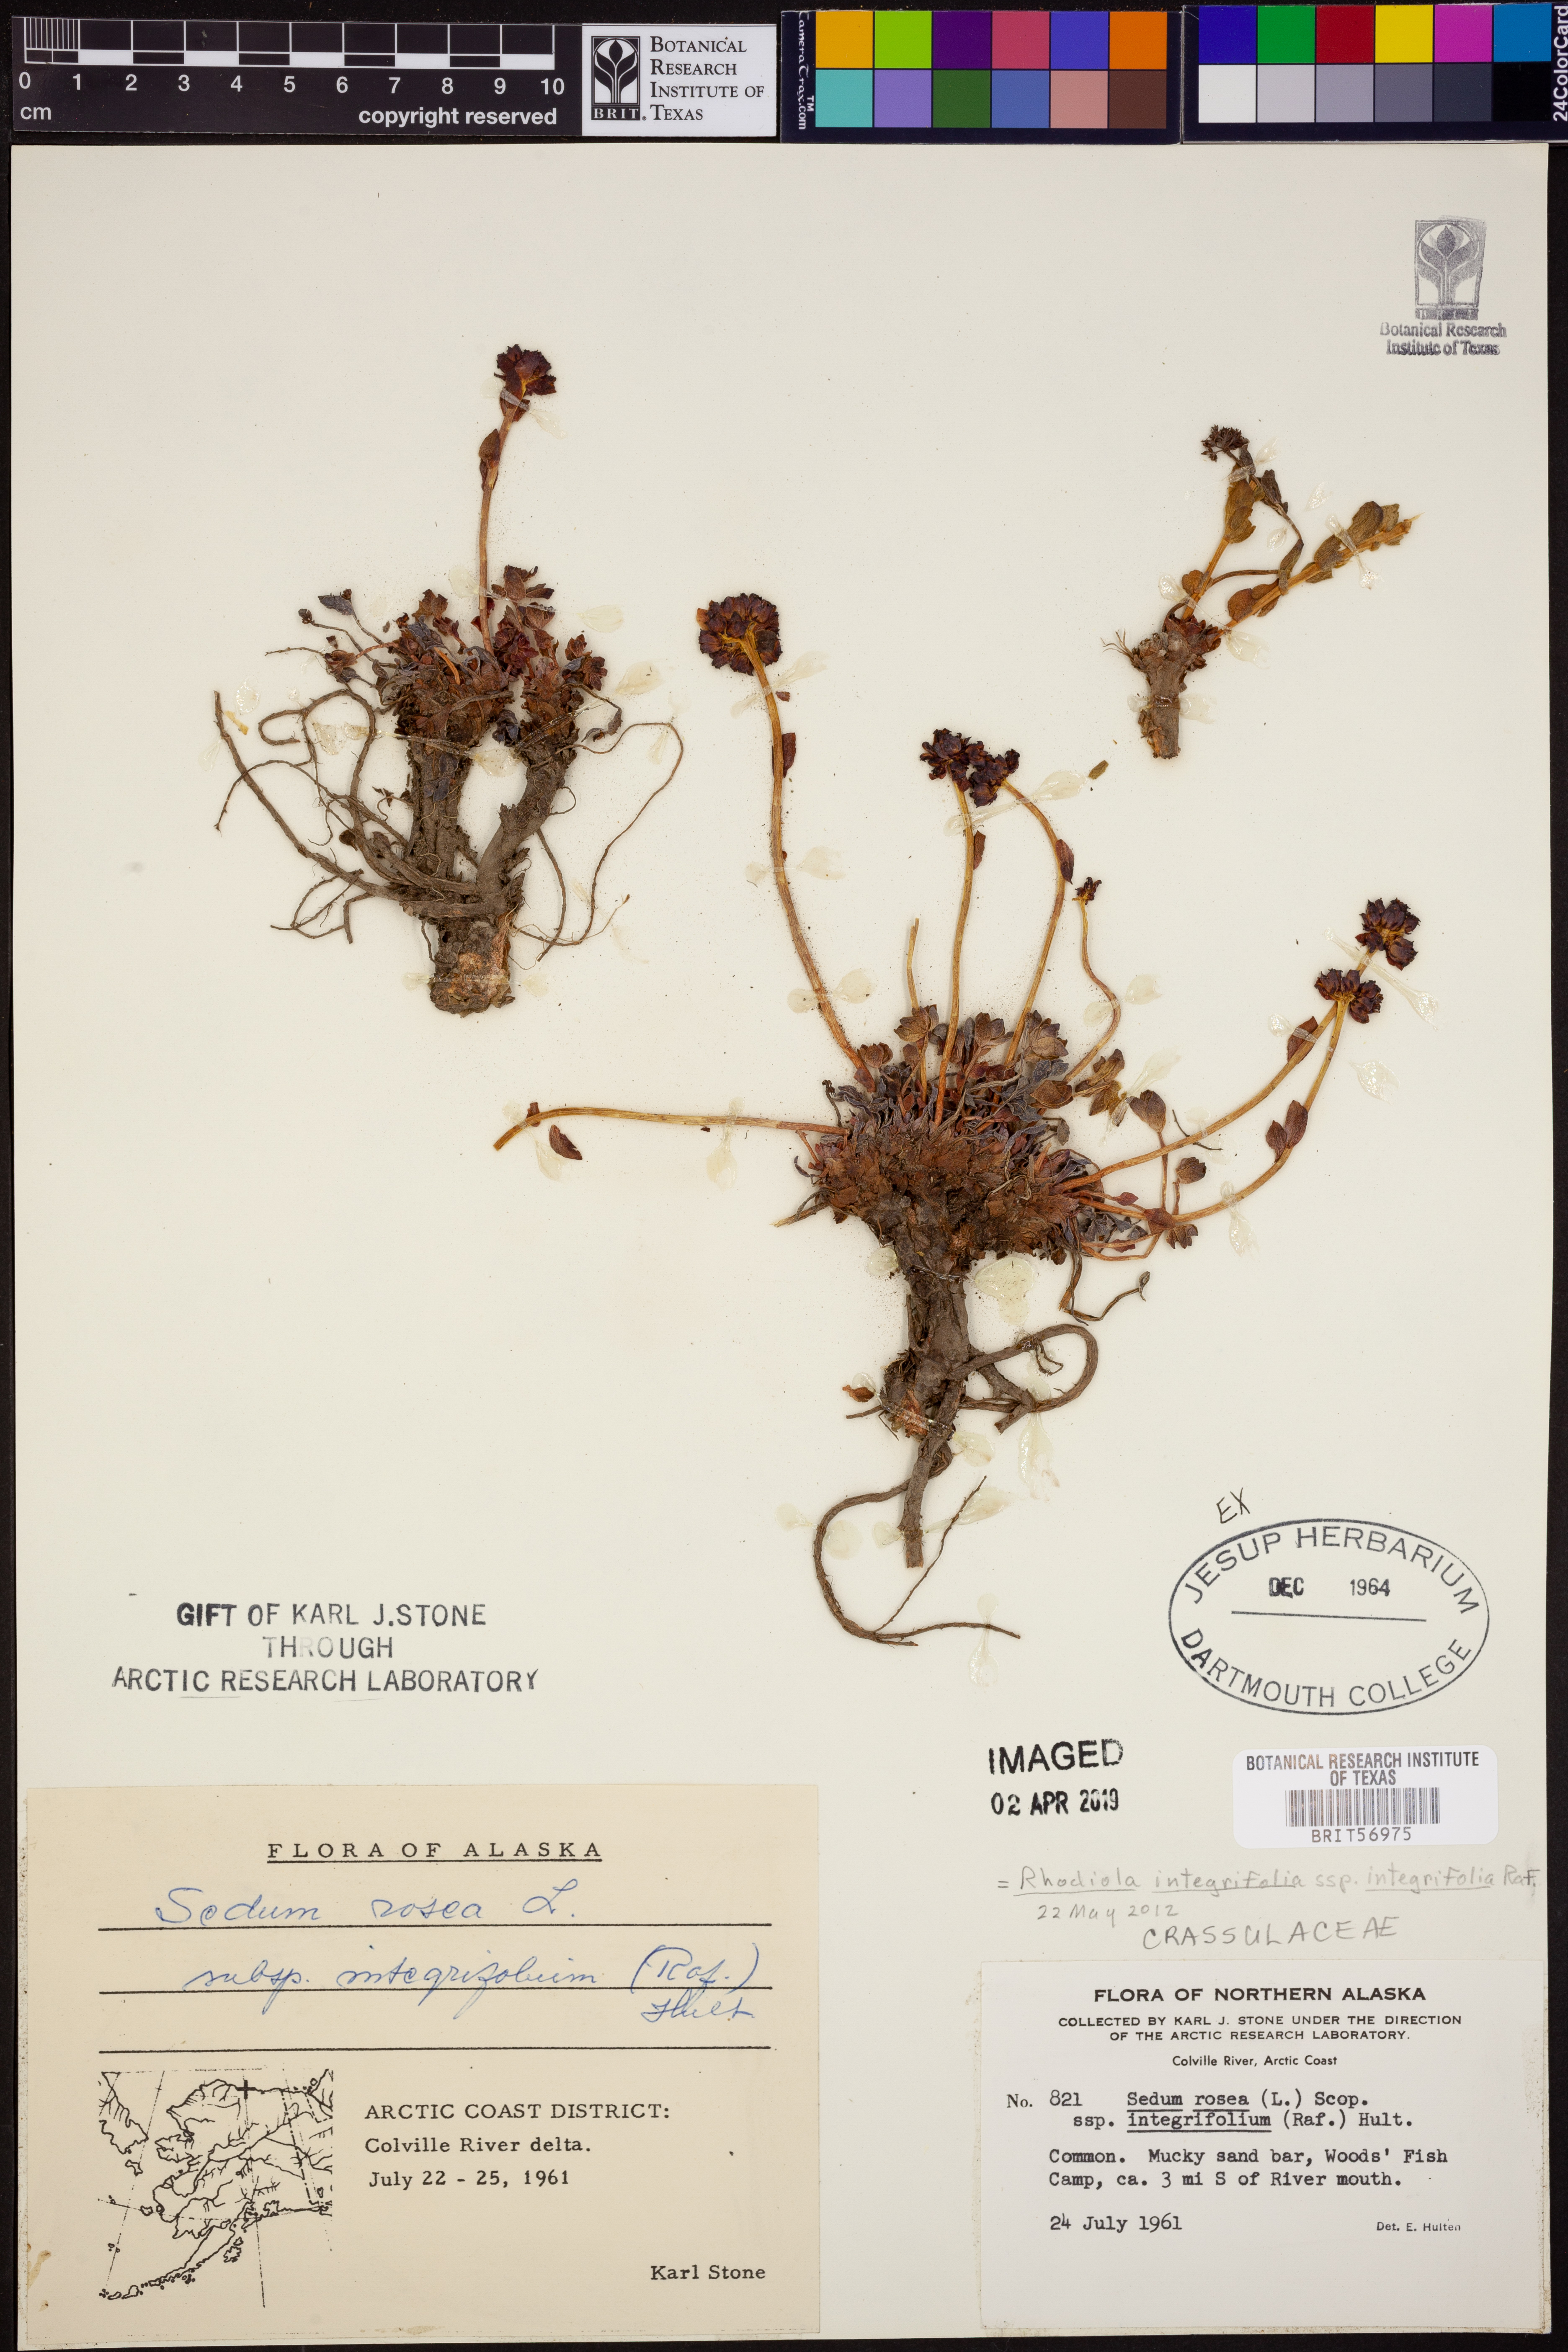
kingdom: Plantae
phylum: Tracheophyta
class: Magnoliopsida
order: Saxifragales
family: Crassulaceae
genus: Rhodiola
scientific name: Rhodiola integrifolia
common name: Western roseroot
